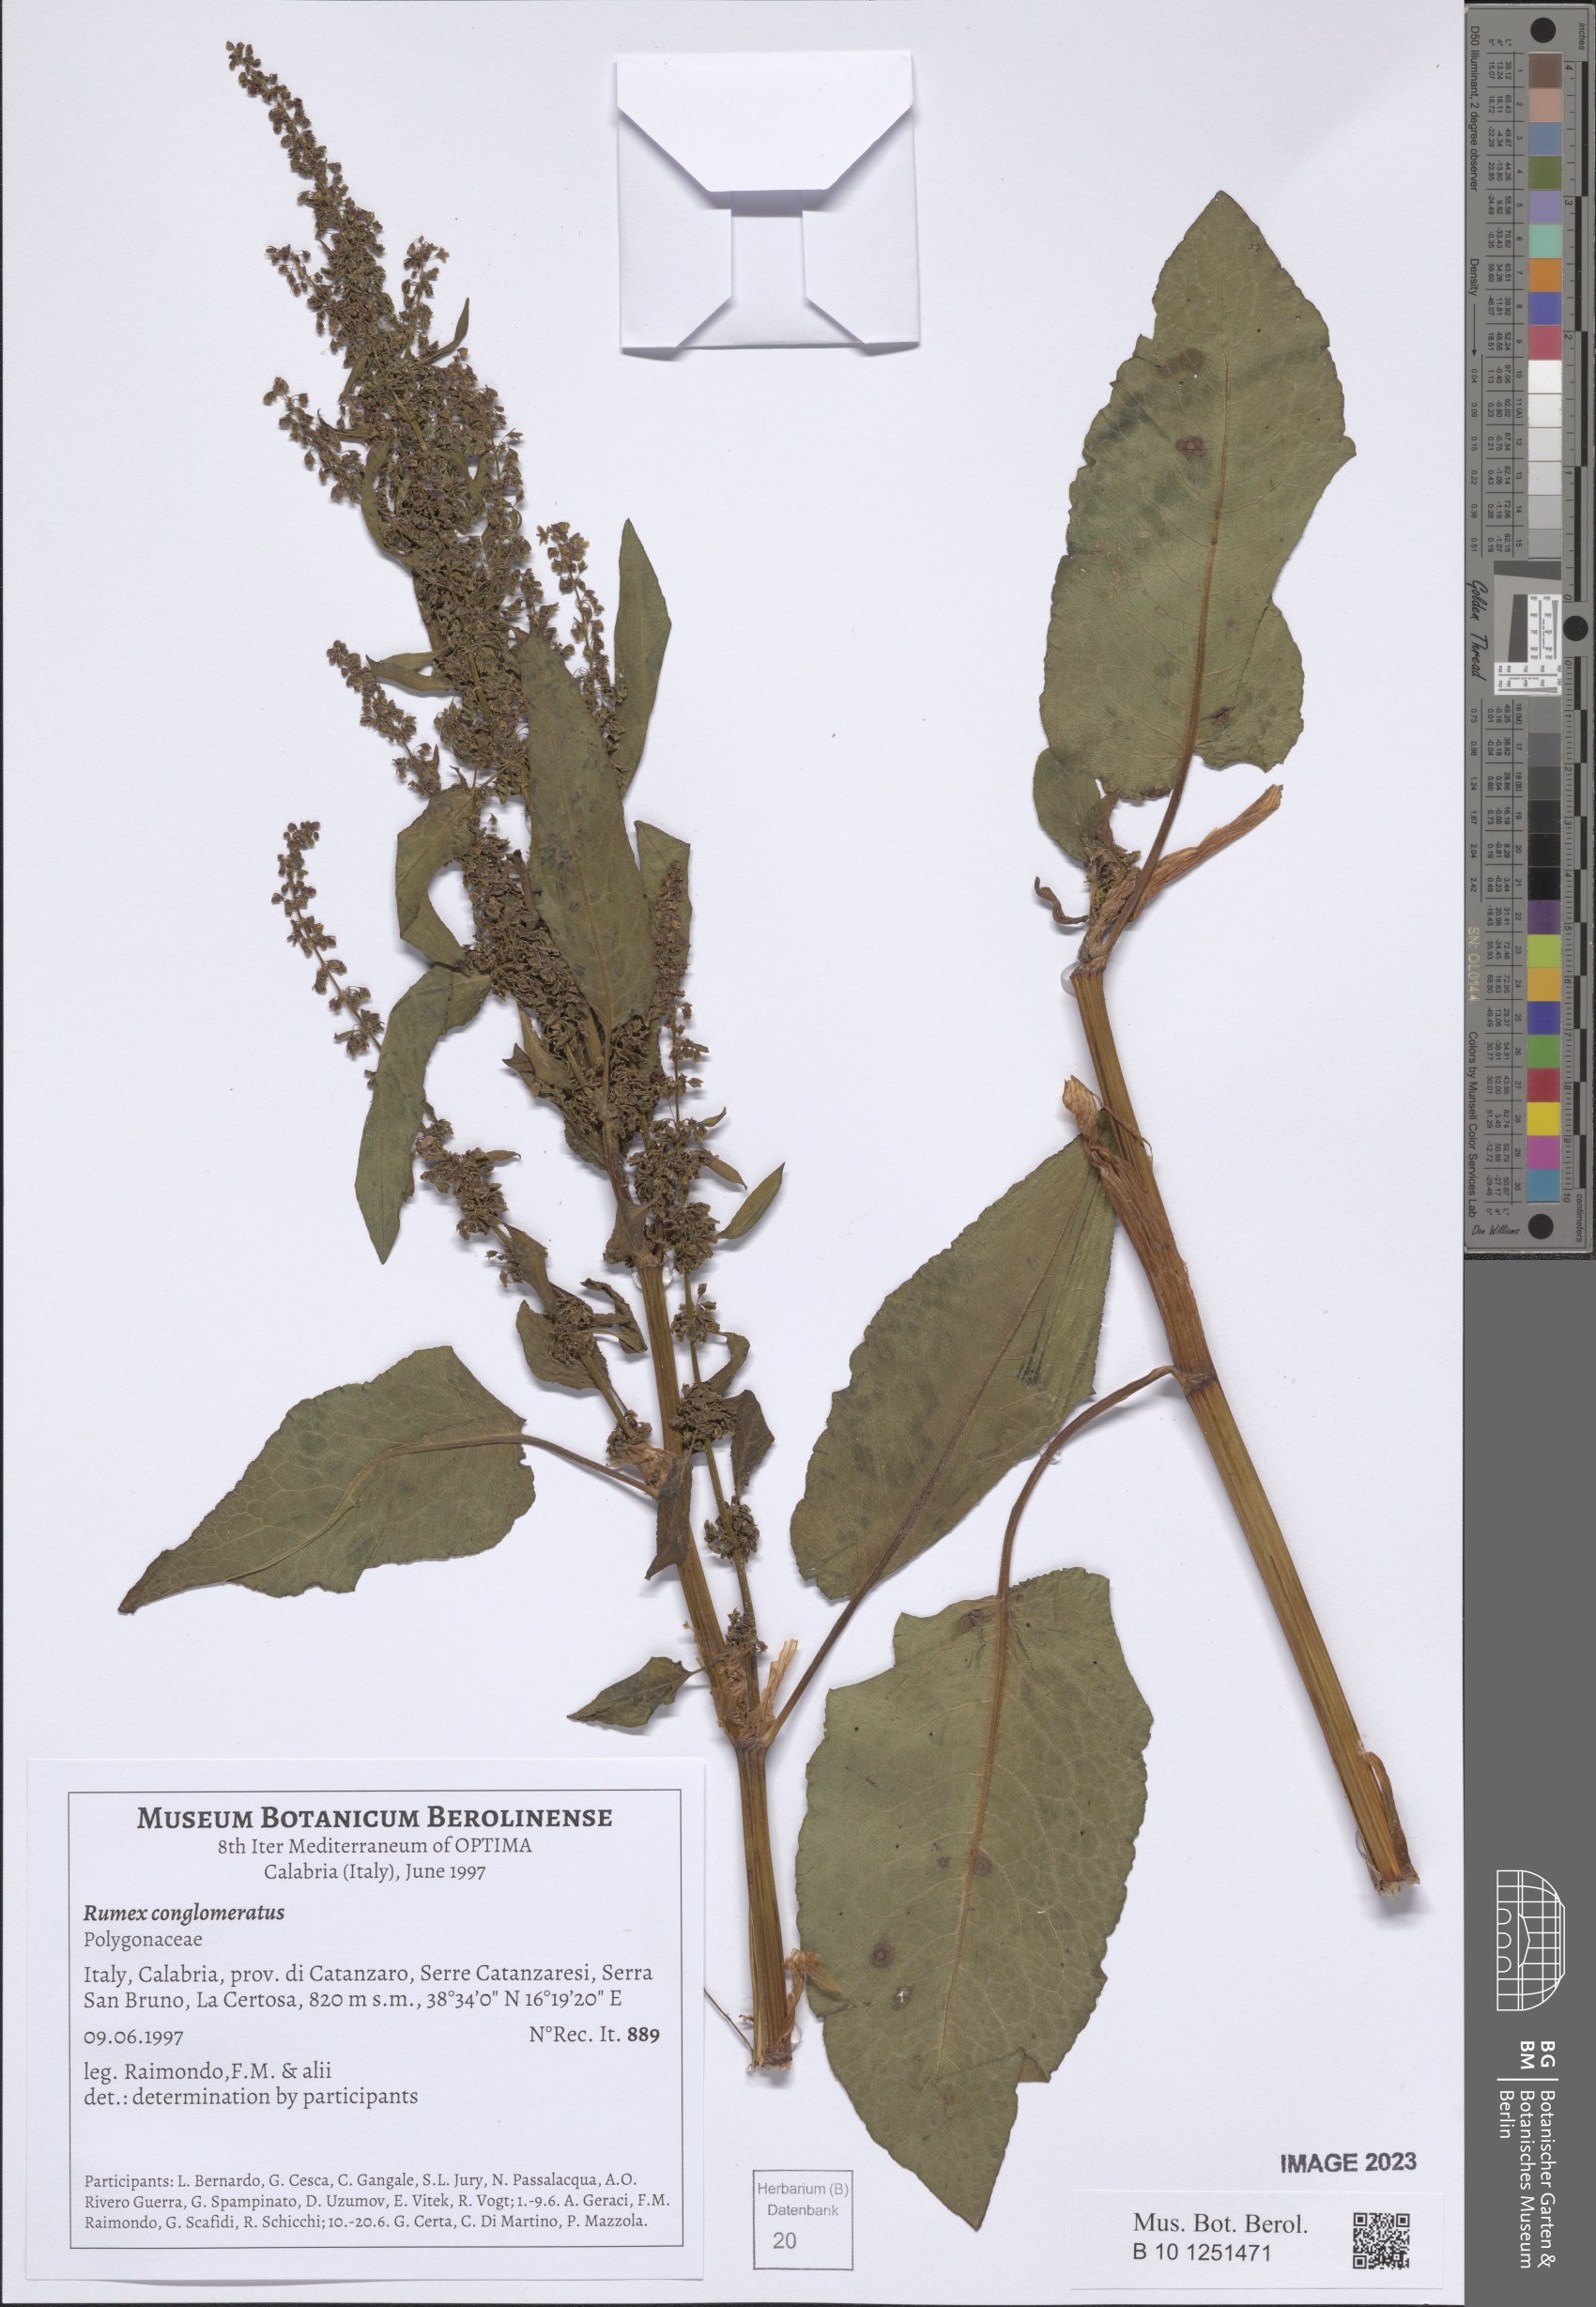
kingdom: Plantae
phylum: Tracheophyta
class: Magnoliopsida
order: Caryophyllales
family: Polygonaceae
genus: Rumex
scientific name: Rumex conglomeratus
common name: Clustered dock
